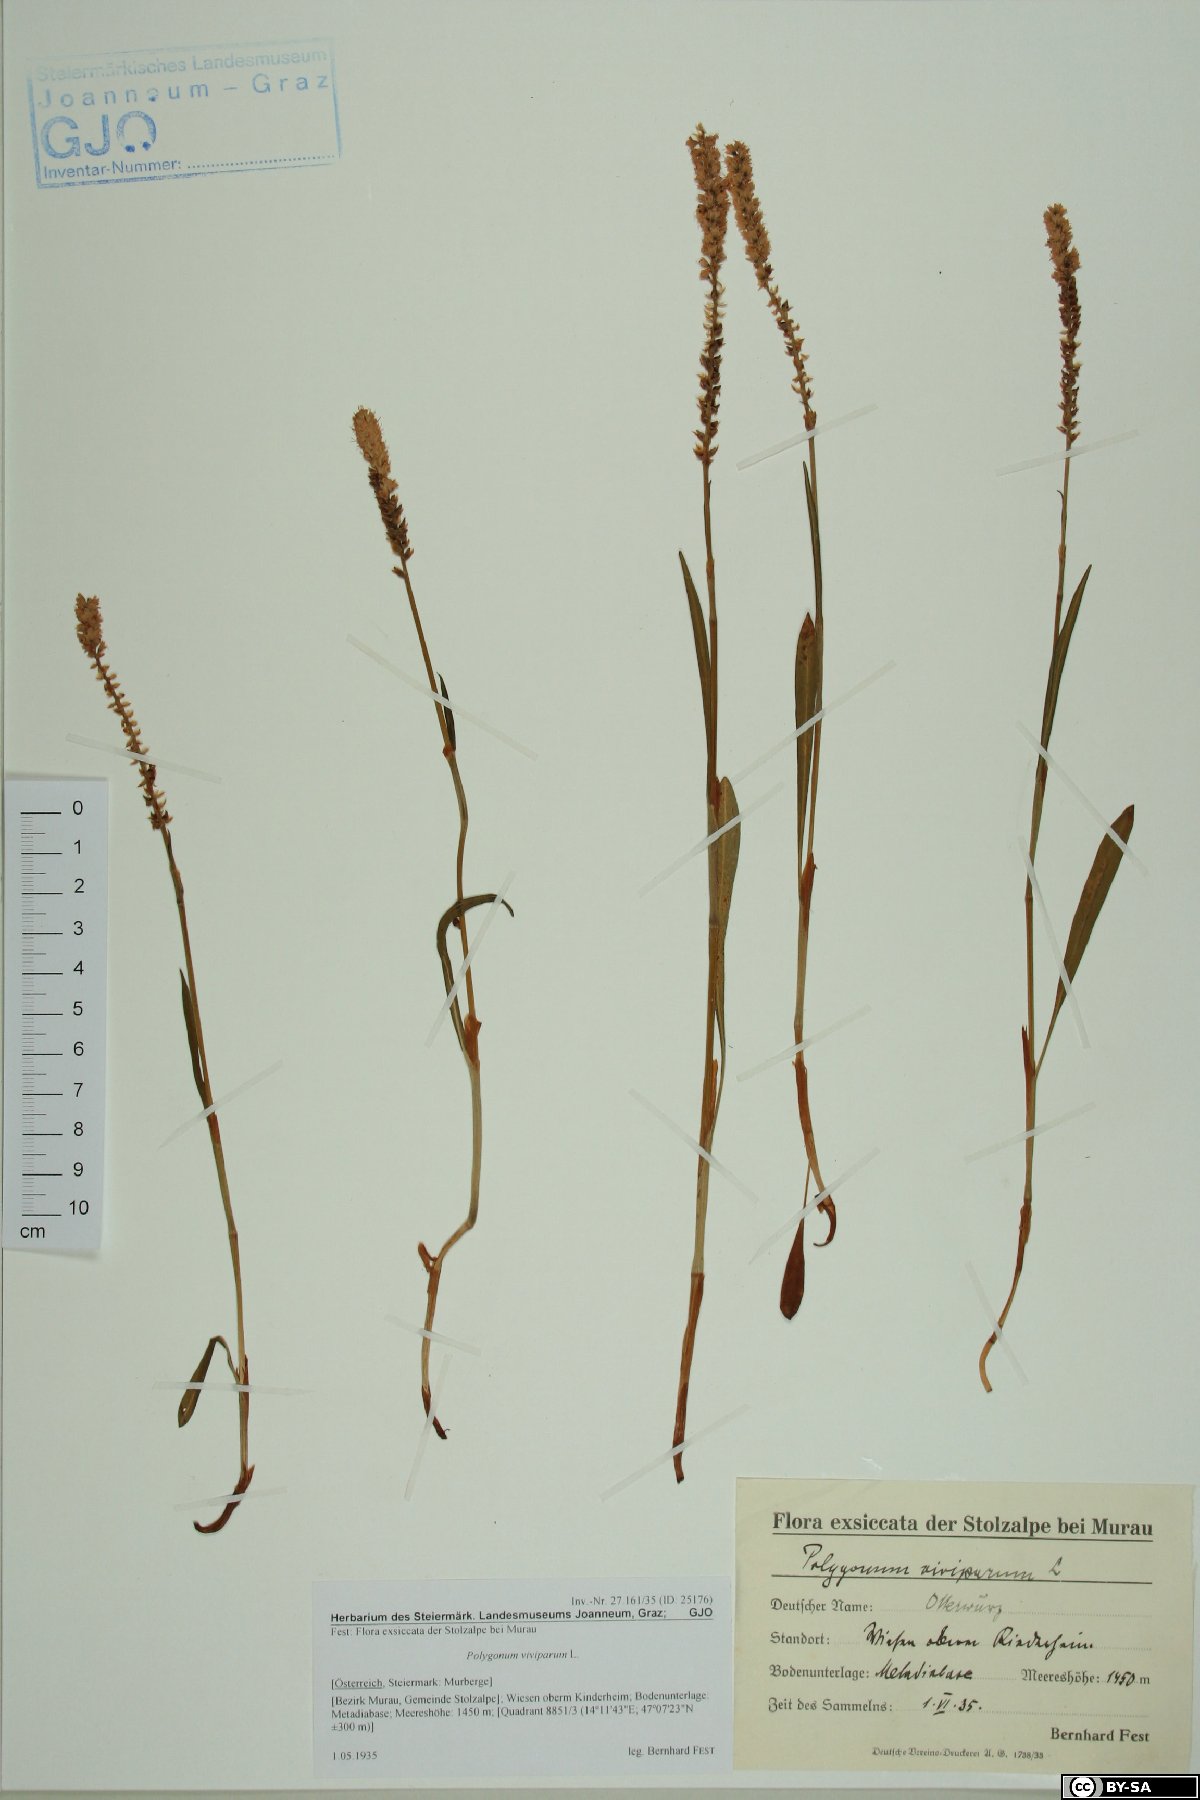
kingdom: Plantae
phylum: Tracheophyta
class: Magnoliopsida
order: Caryophyllales
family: Polygonaceae
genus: Bistorta
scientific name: Bistorta vivipara
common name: Alpine bistort
